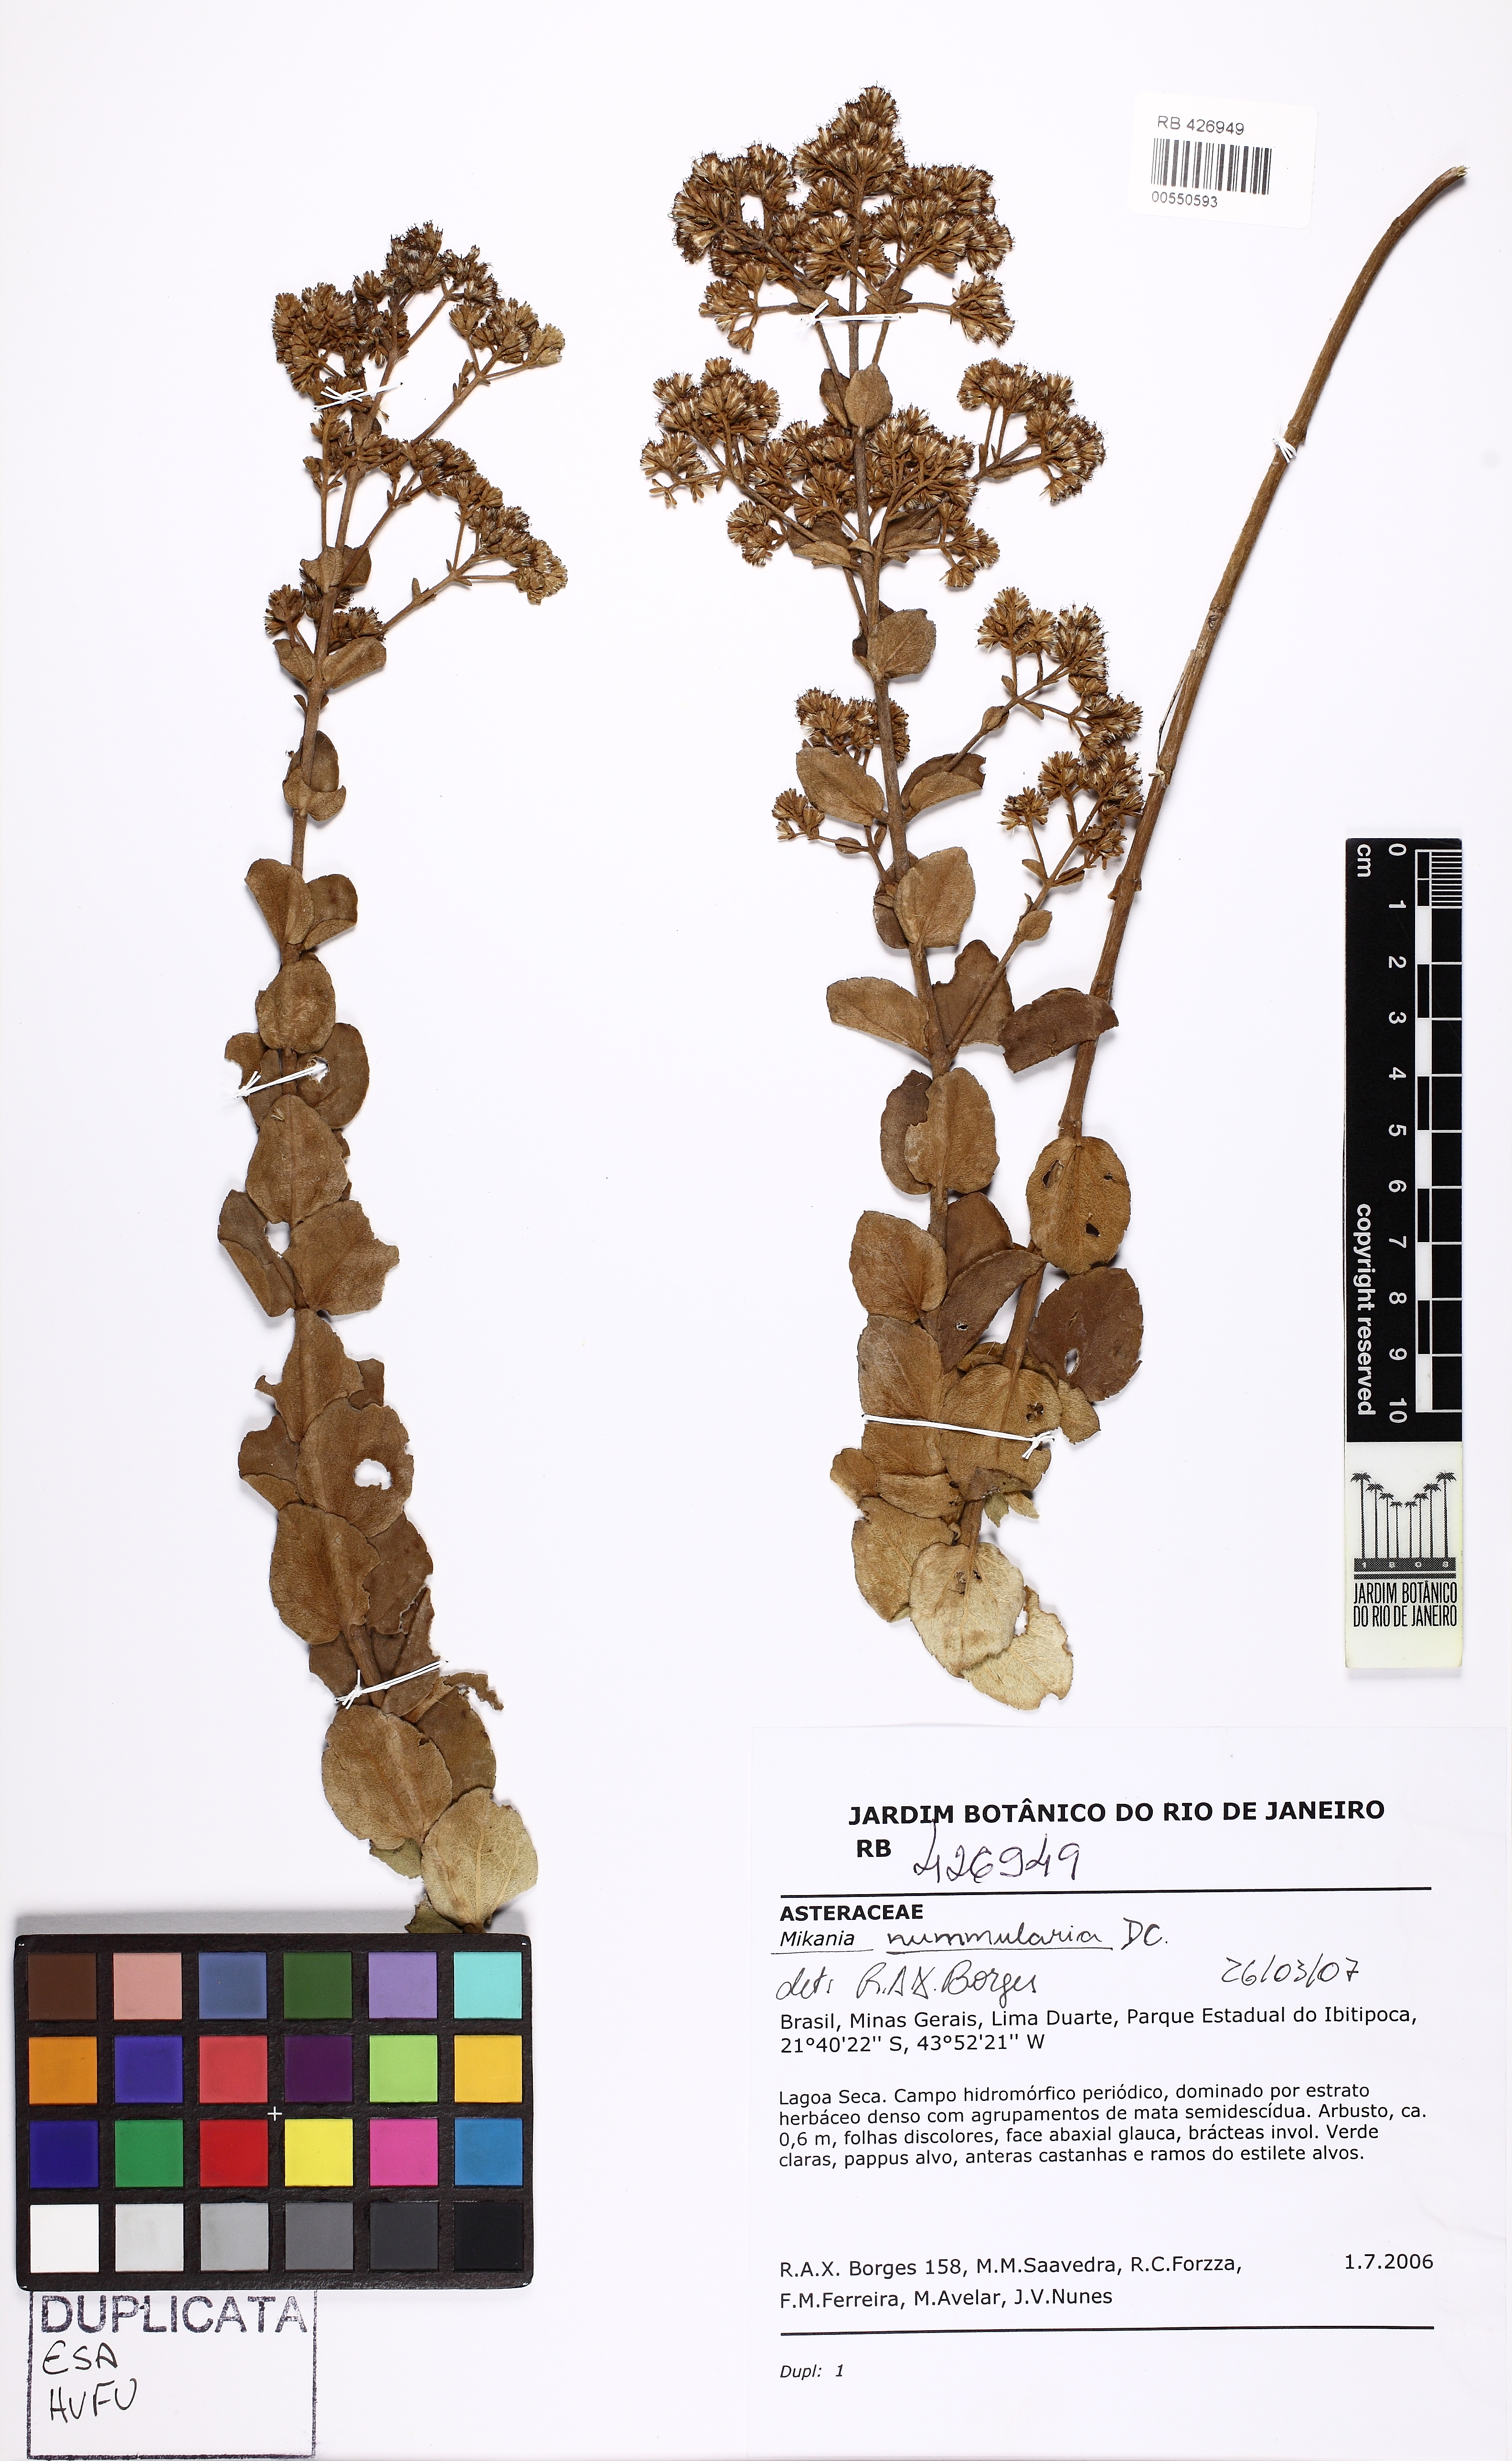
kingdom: Plantae
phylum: Tracheophyta
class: Magnoliopsida
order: Asterales
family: Asteraceae
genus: Mikania
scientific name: Mikania nummularia
